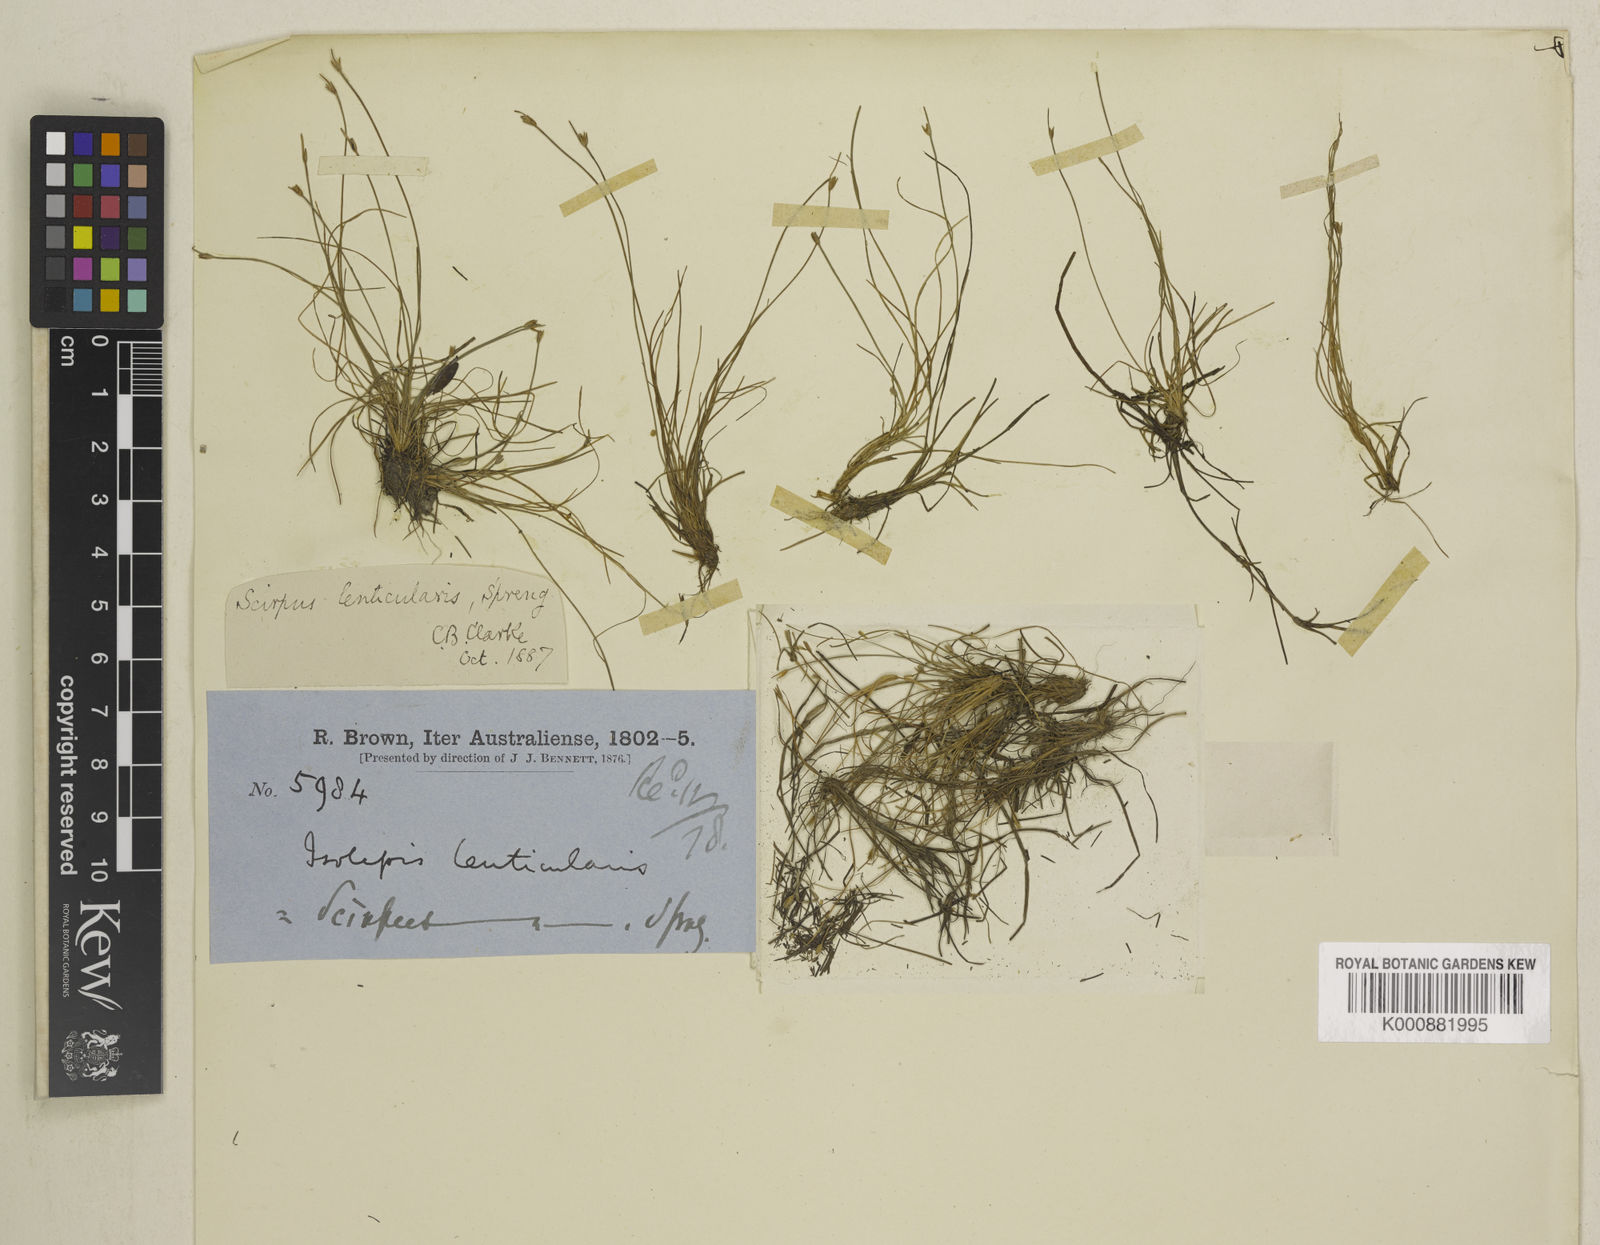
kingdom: Plantae
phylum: Tracheophyta
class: Liliopsida
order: Poales
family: Cyperaceae
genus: Isolepis
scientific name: Isolepis fluitans
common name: Floating club-rush
